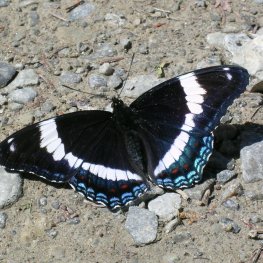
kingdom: Animalia
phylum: Arthropoda
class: Insecta
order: Lepidoptera
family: Nymphalidae
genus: Limenitis
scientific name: Limenitis arthemis
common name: Red-spotted Admiral
